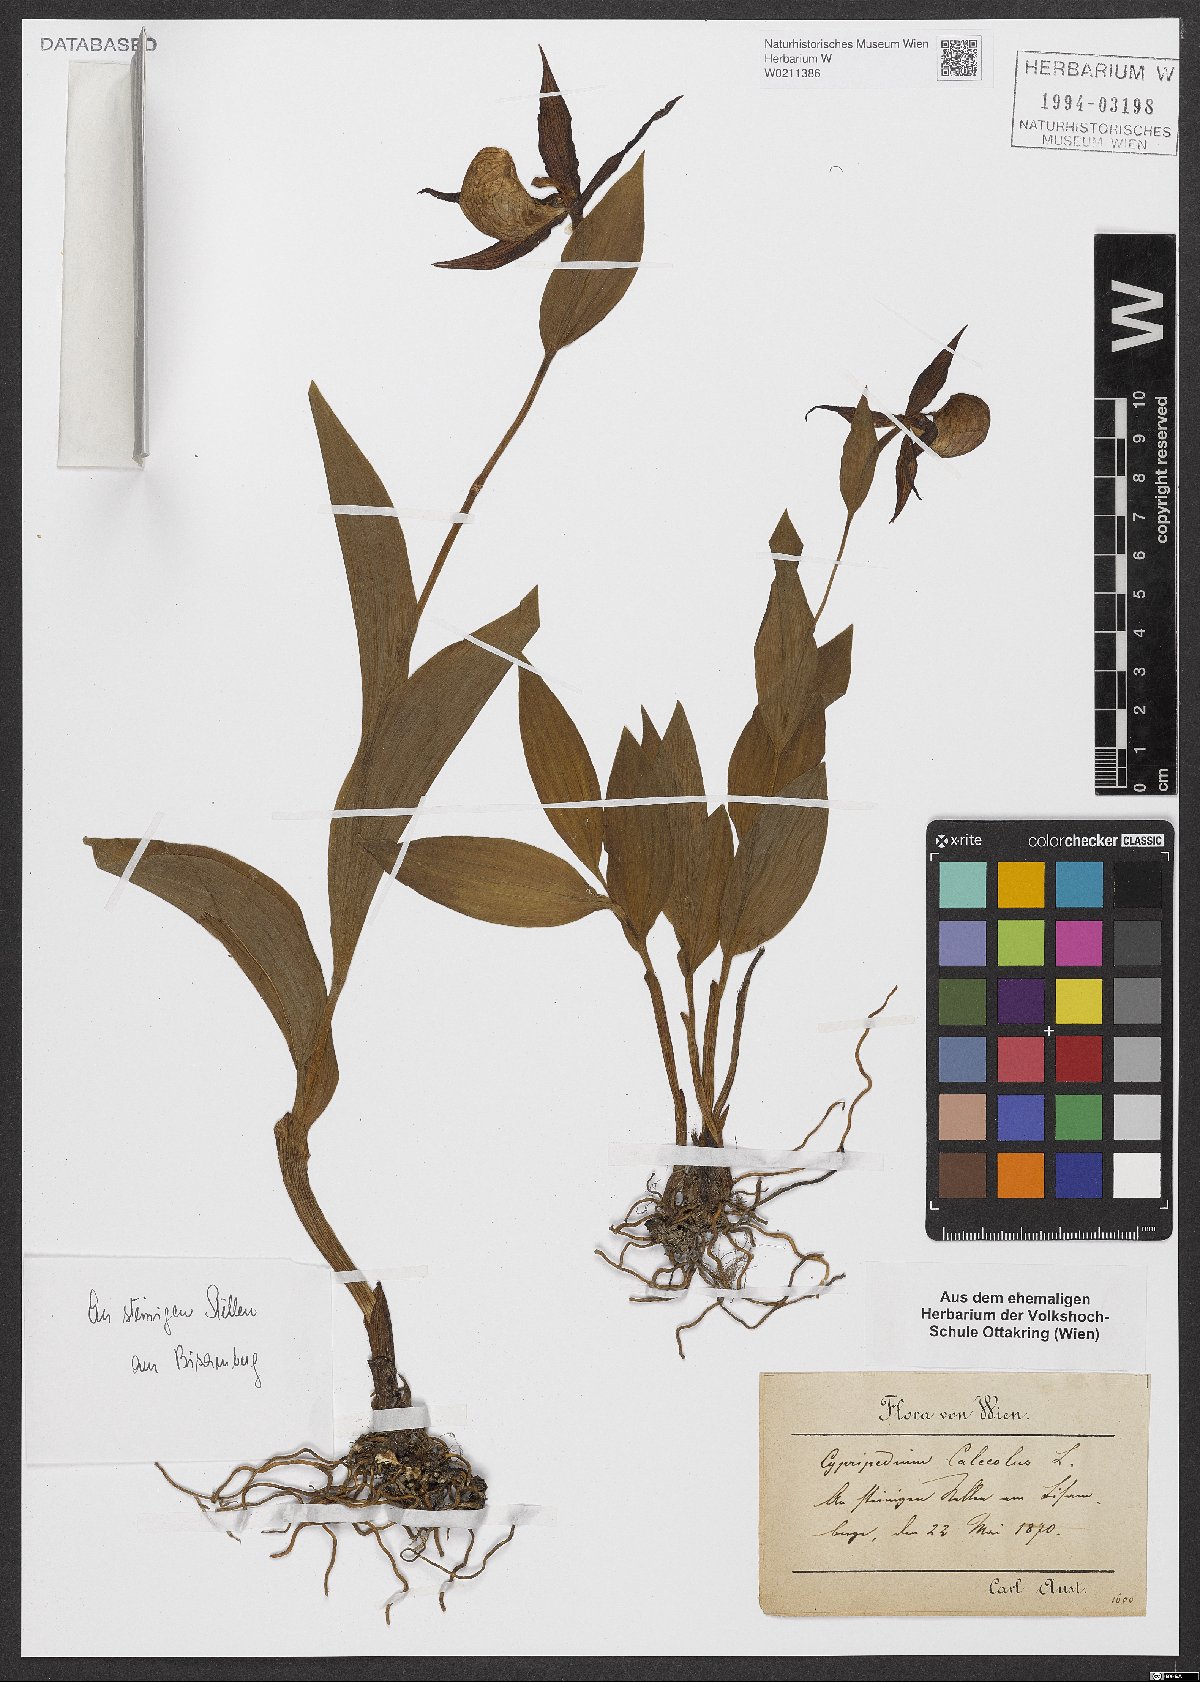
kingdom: Plantae
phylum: Tracheophyta
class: Liliopsida
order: Asparagales
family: Orchidaceae
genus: Cypripedium
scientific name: Cypripedium calceolus
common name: Lady's-slipper
